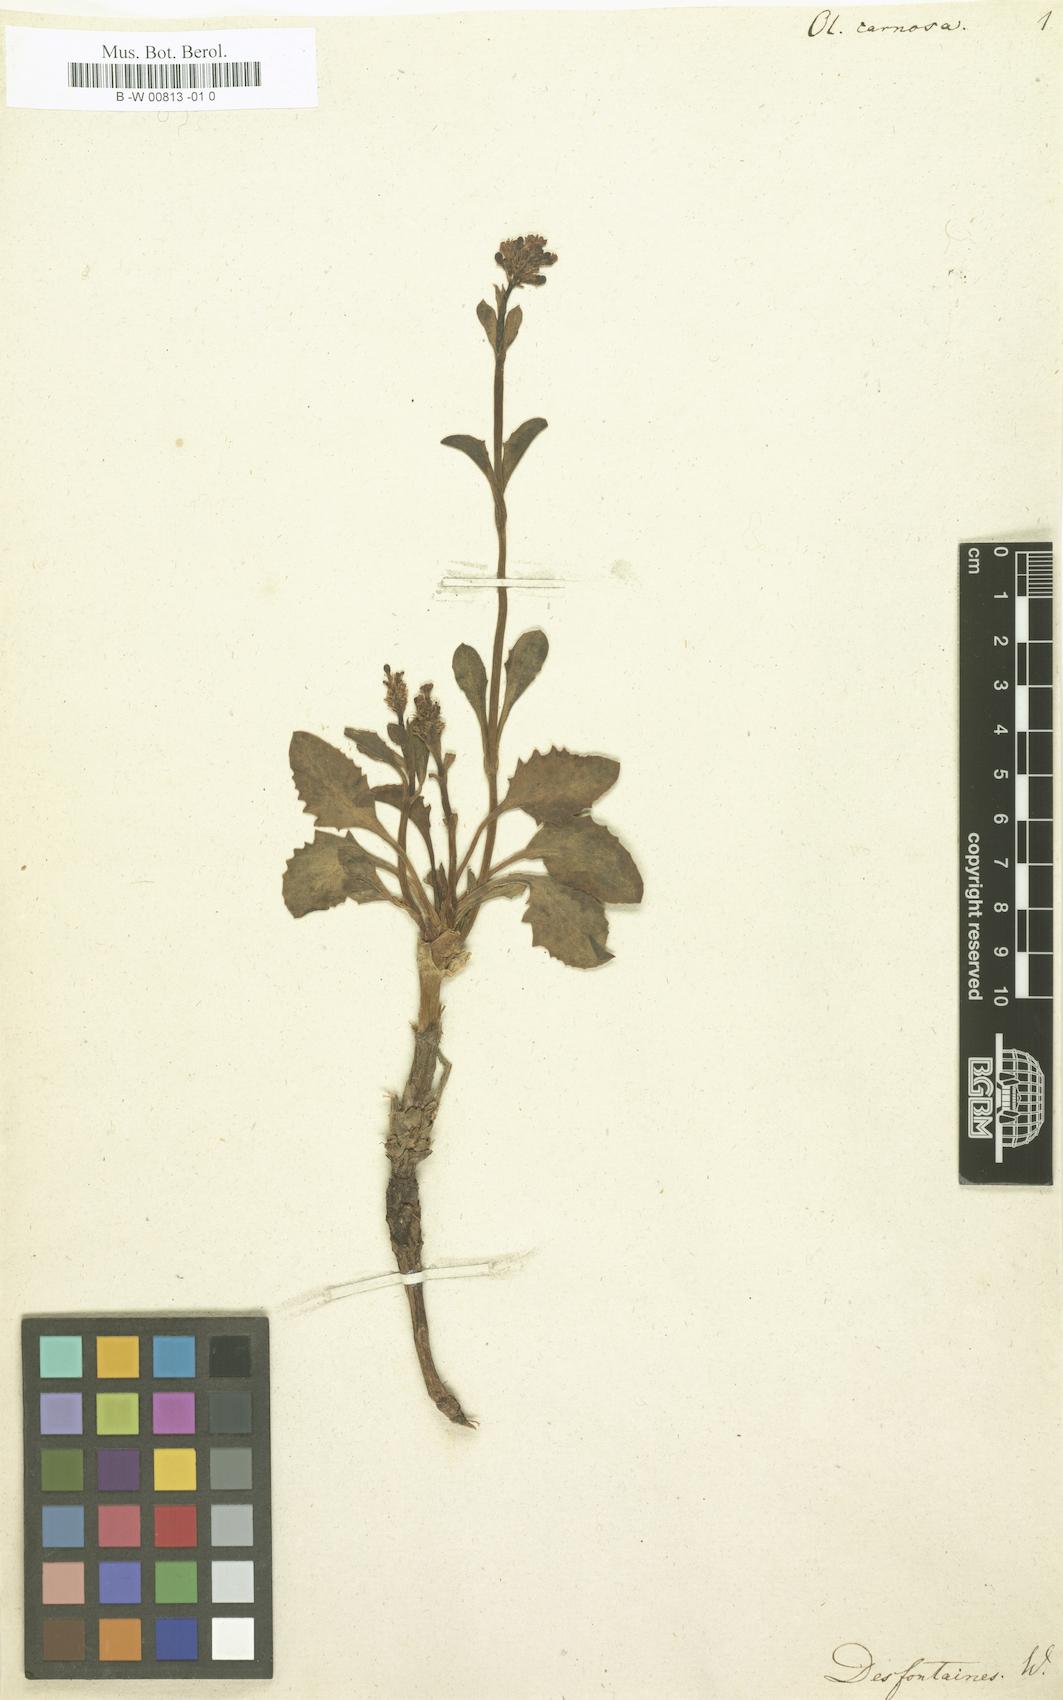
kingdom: Plantae
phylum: Tracheophyta
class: Magnoliopsida
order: Dipsacales
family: Caprifoliaceae
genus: Valeriana
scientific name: Valeriana carnosa
